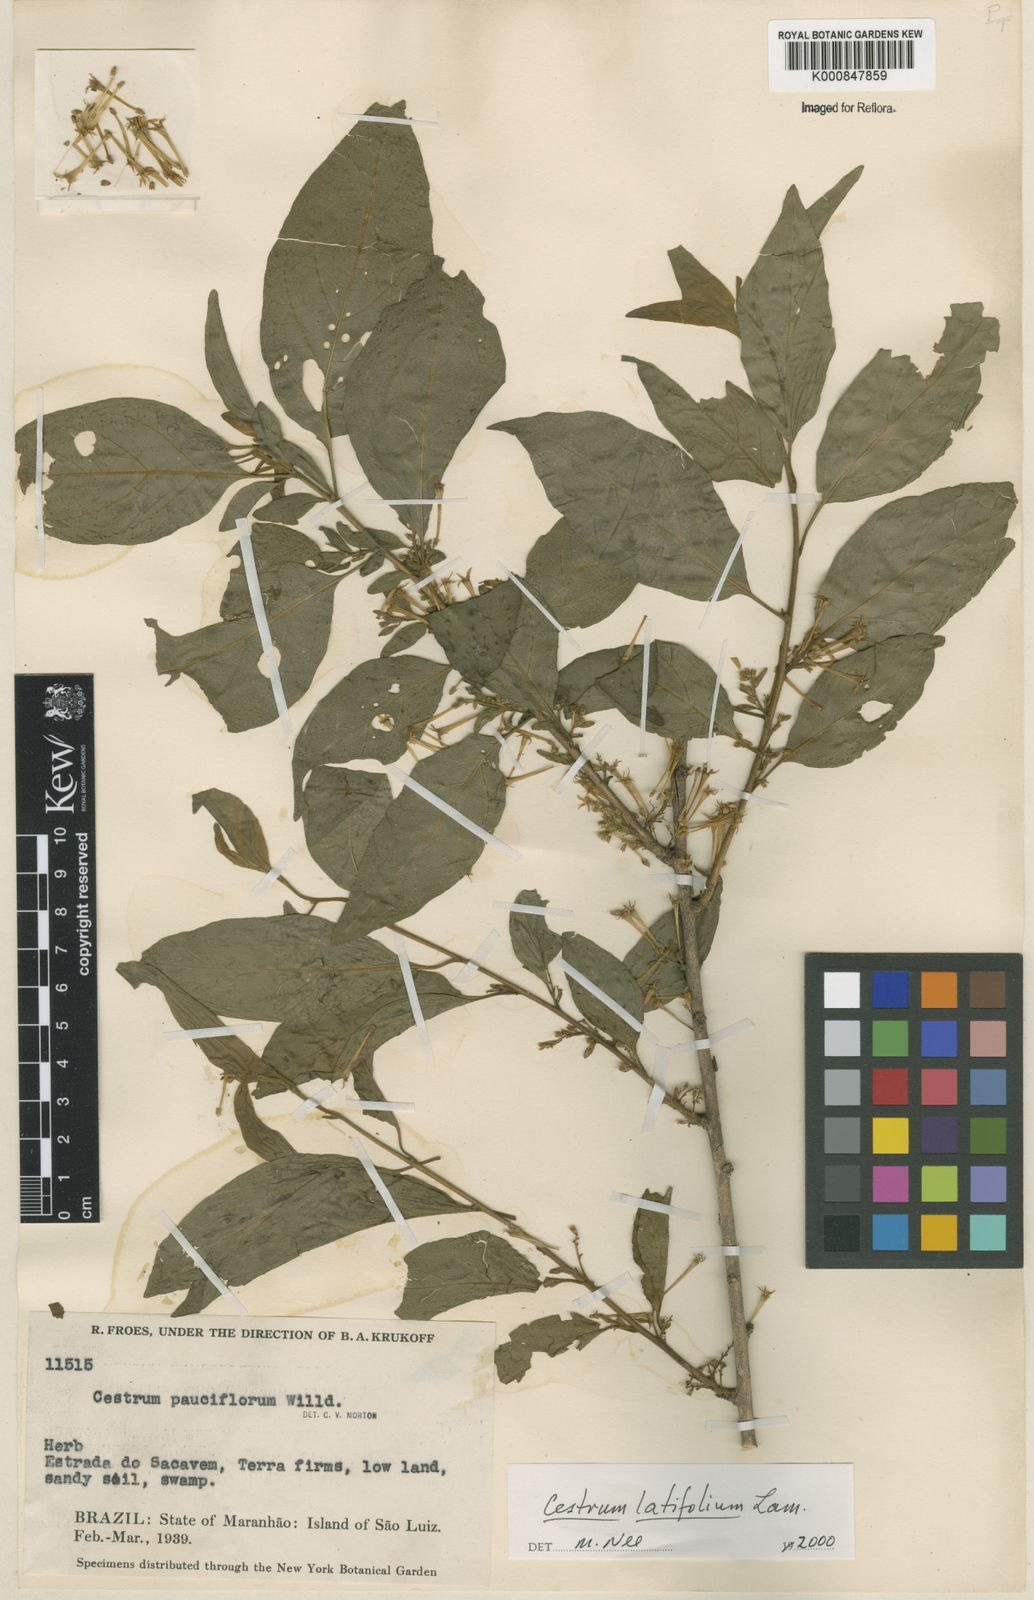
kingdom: Plantae
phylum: Tracheophyta
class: Magnoliopsida
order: Solanales
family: Solanaceae
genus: Cestrum
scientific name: Cestrum latifolium
